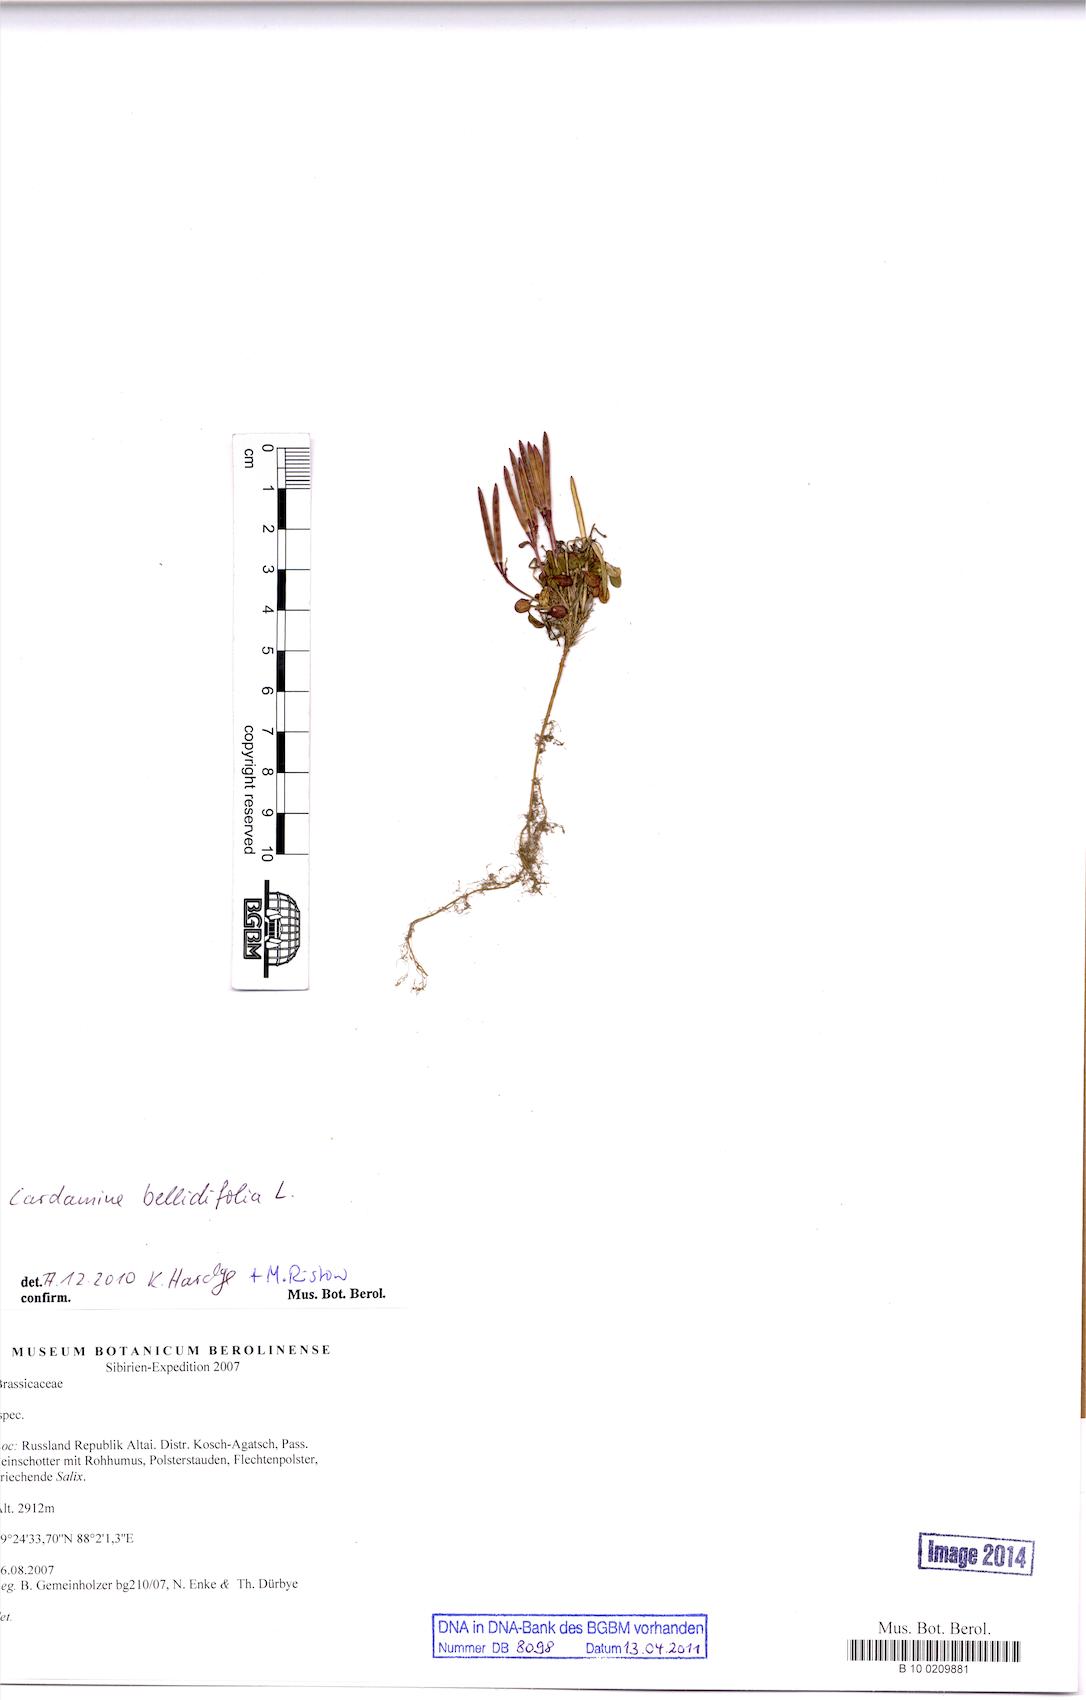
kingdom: Plantae
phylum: Tracheophyta
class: Magnoliopsida
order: Brassicales
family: Brassicaceae
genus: Cardamine
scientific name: Cardamine bellidifolia
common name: Alpine bittercress
